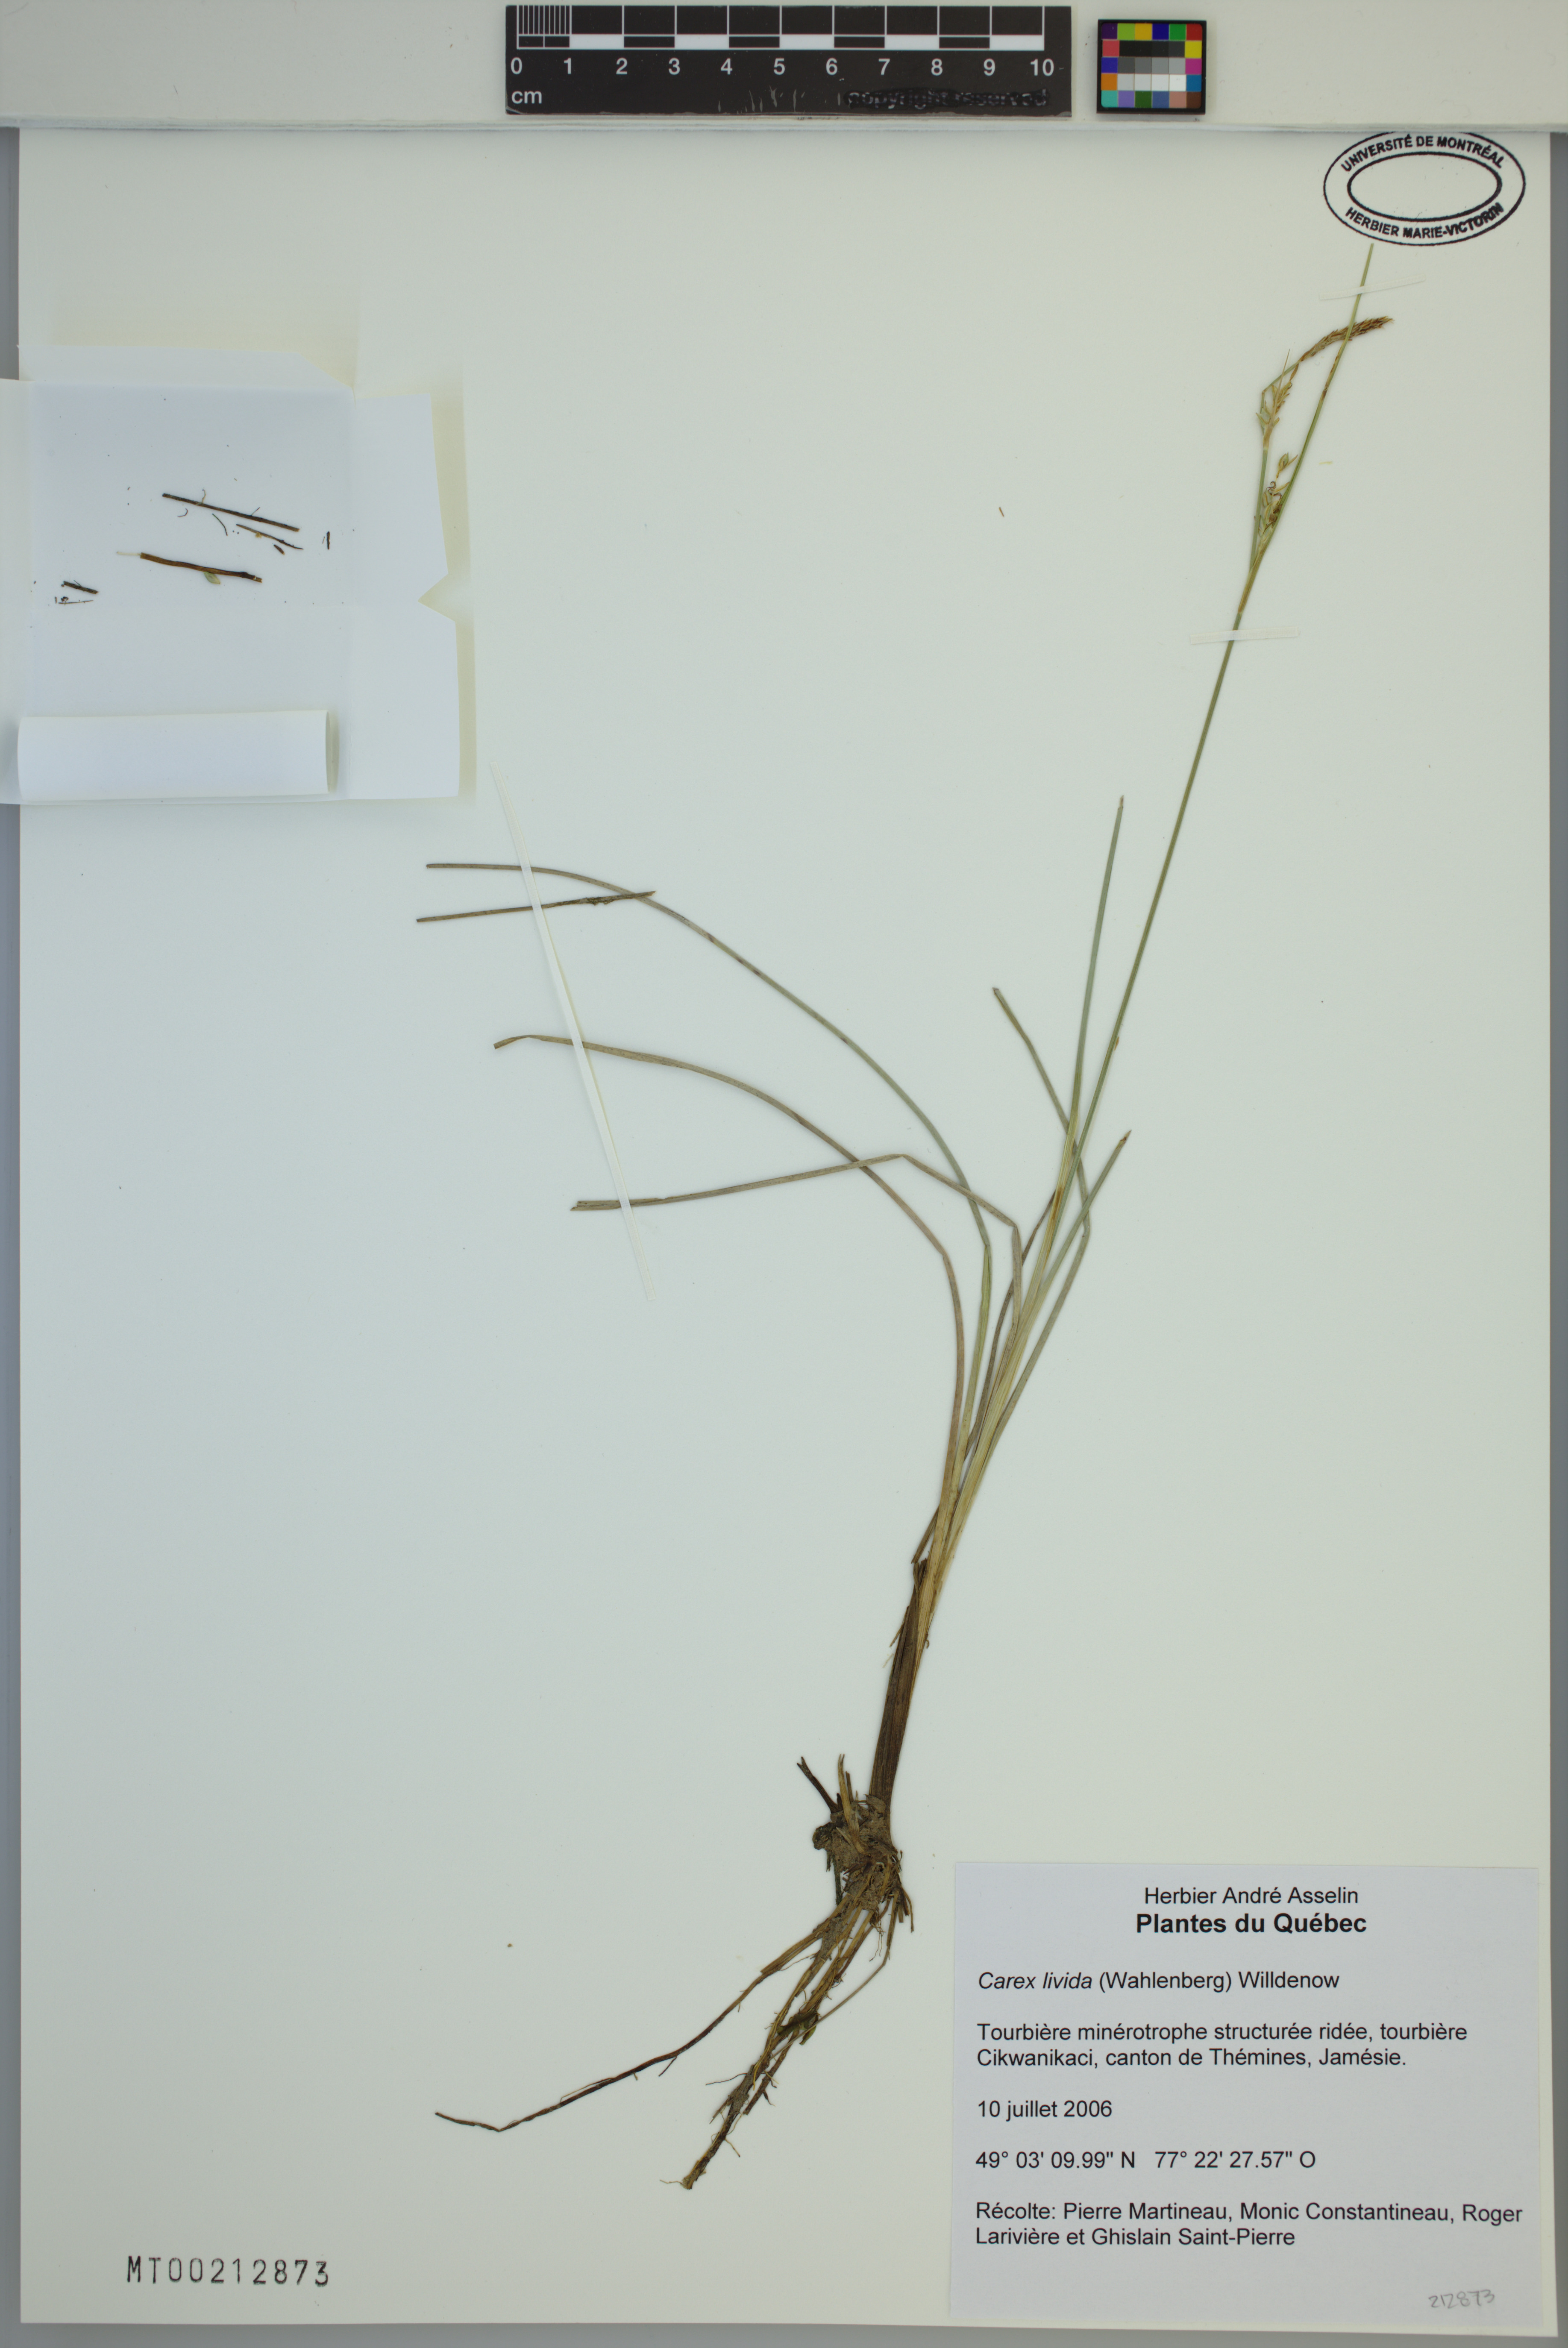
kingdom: Plantae
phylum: Tracheophyta
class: Liliopsida
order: Poales
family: Cyperaceae
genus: Carex
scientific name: Carex livida
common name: Livid sedge
